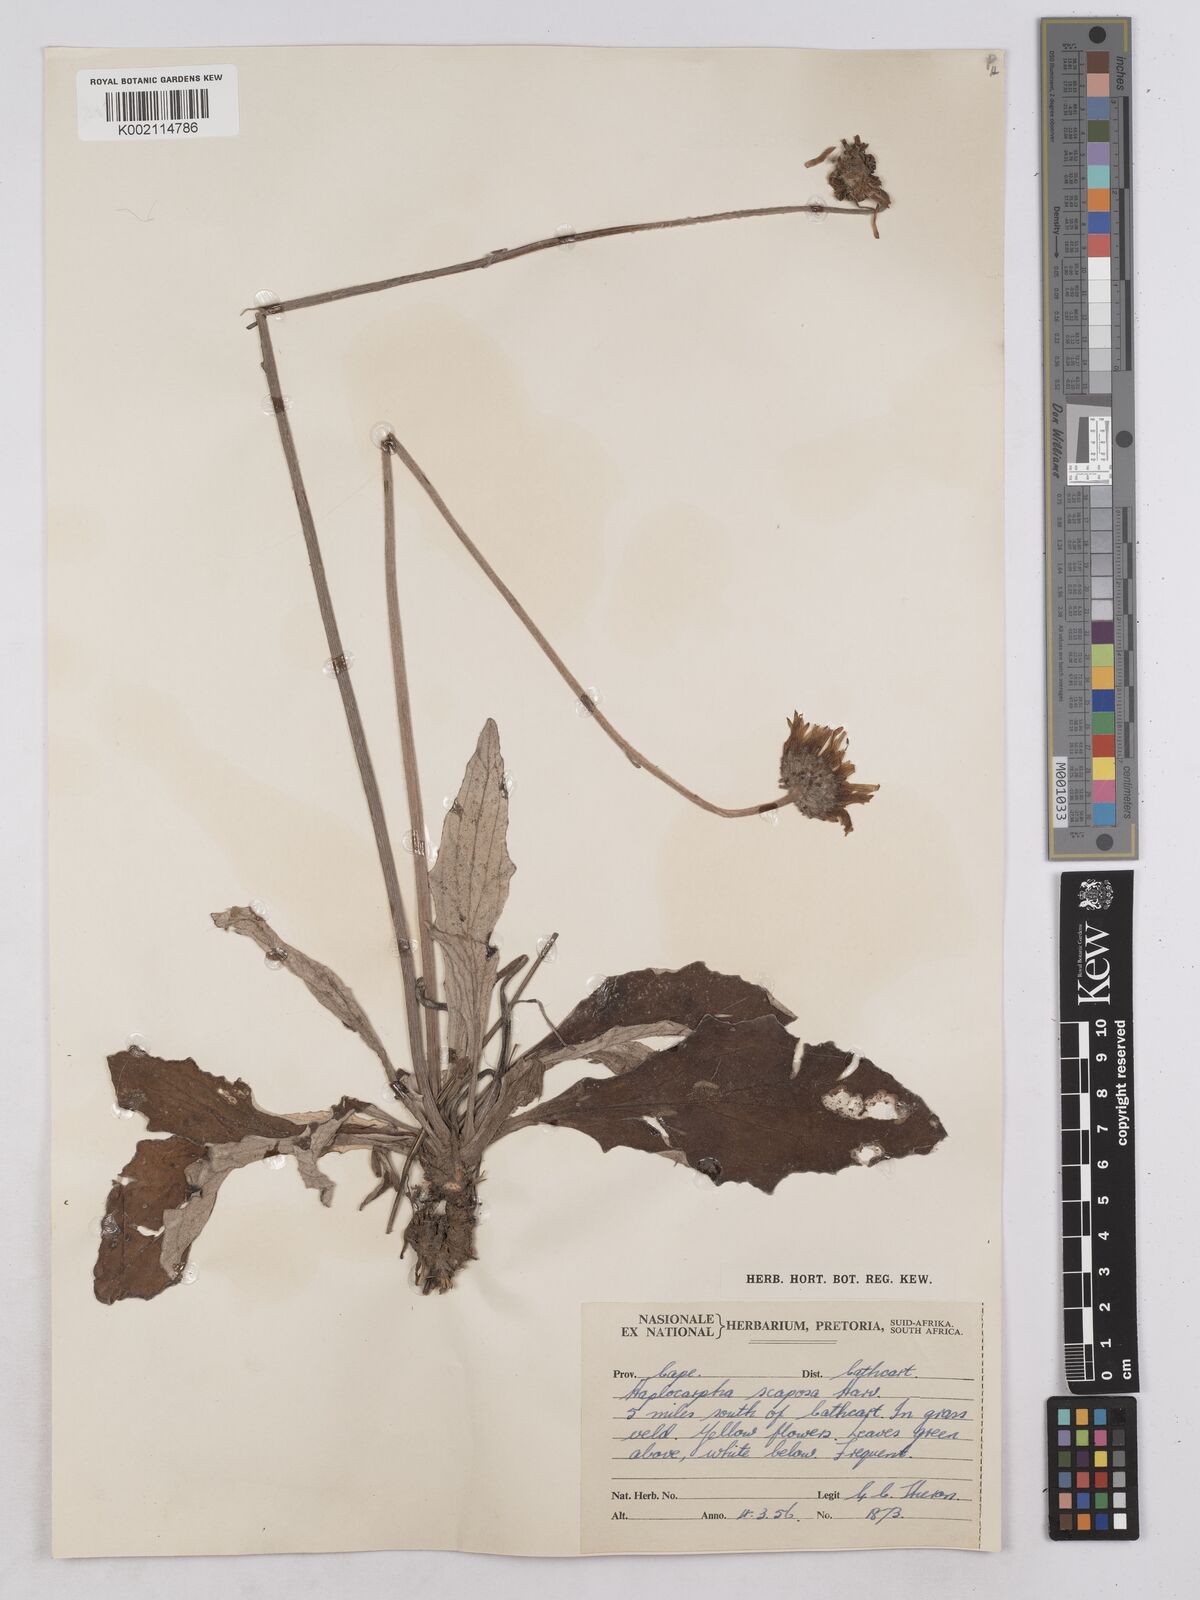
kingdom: Plantae
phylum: Tracheophyta
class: Magnoliopsida
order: Asterales
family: Asteraceae
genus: Haplocarpha
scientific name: Haplocarpha scaposa
